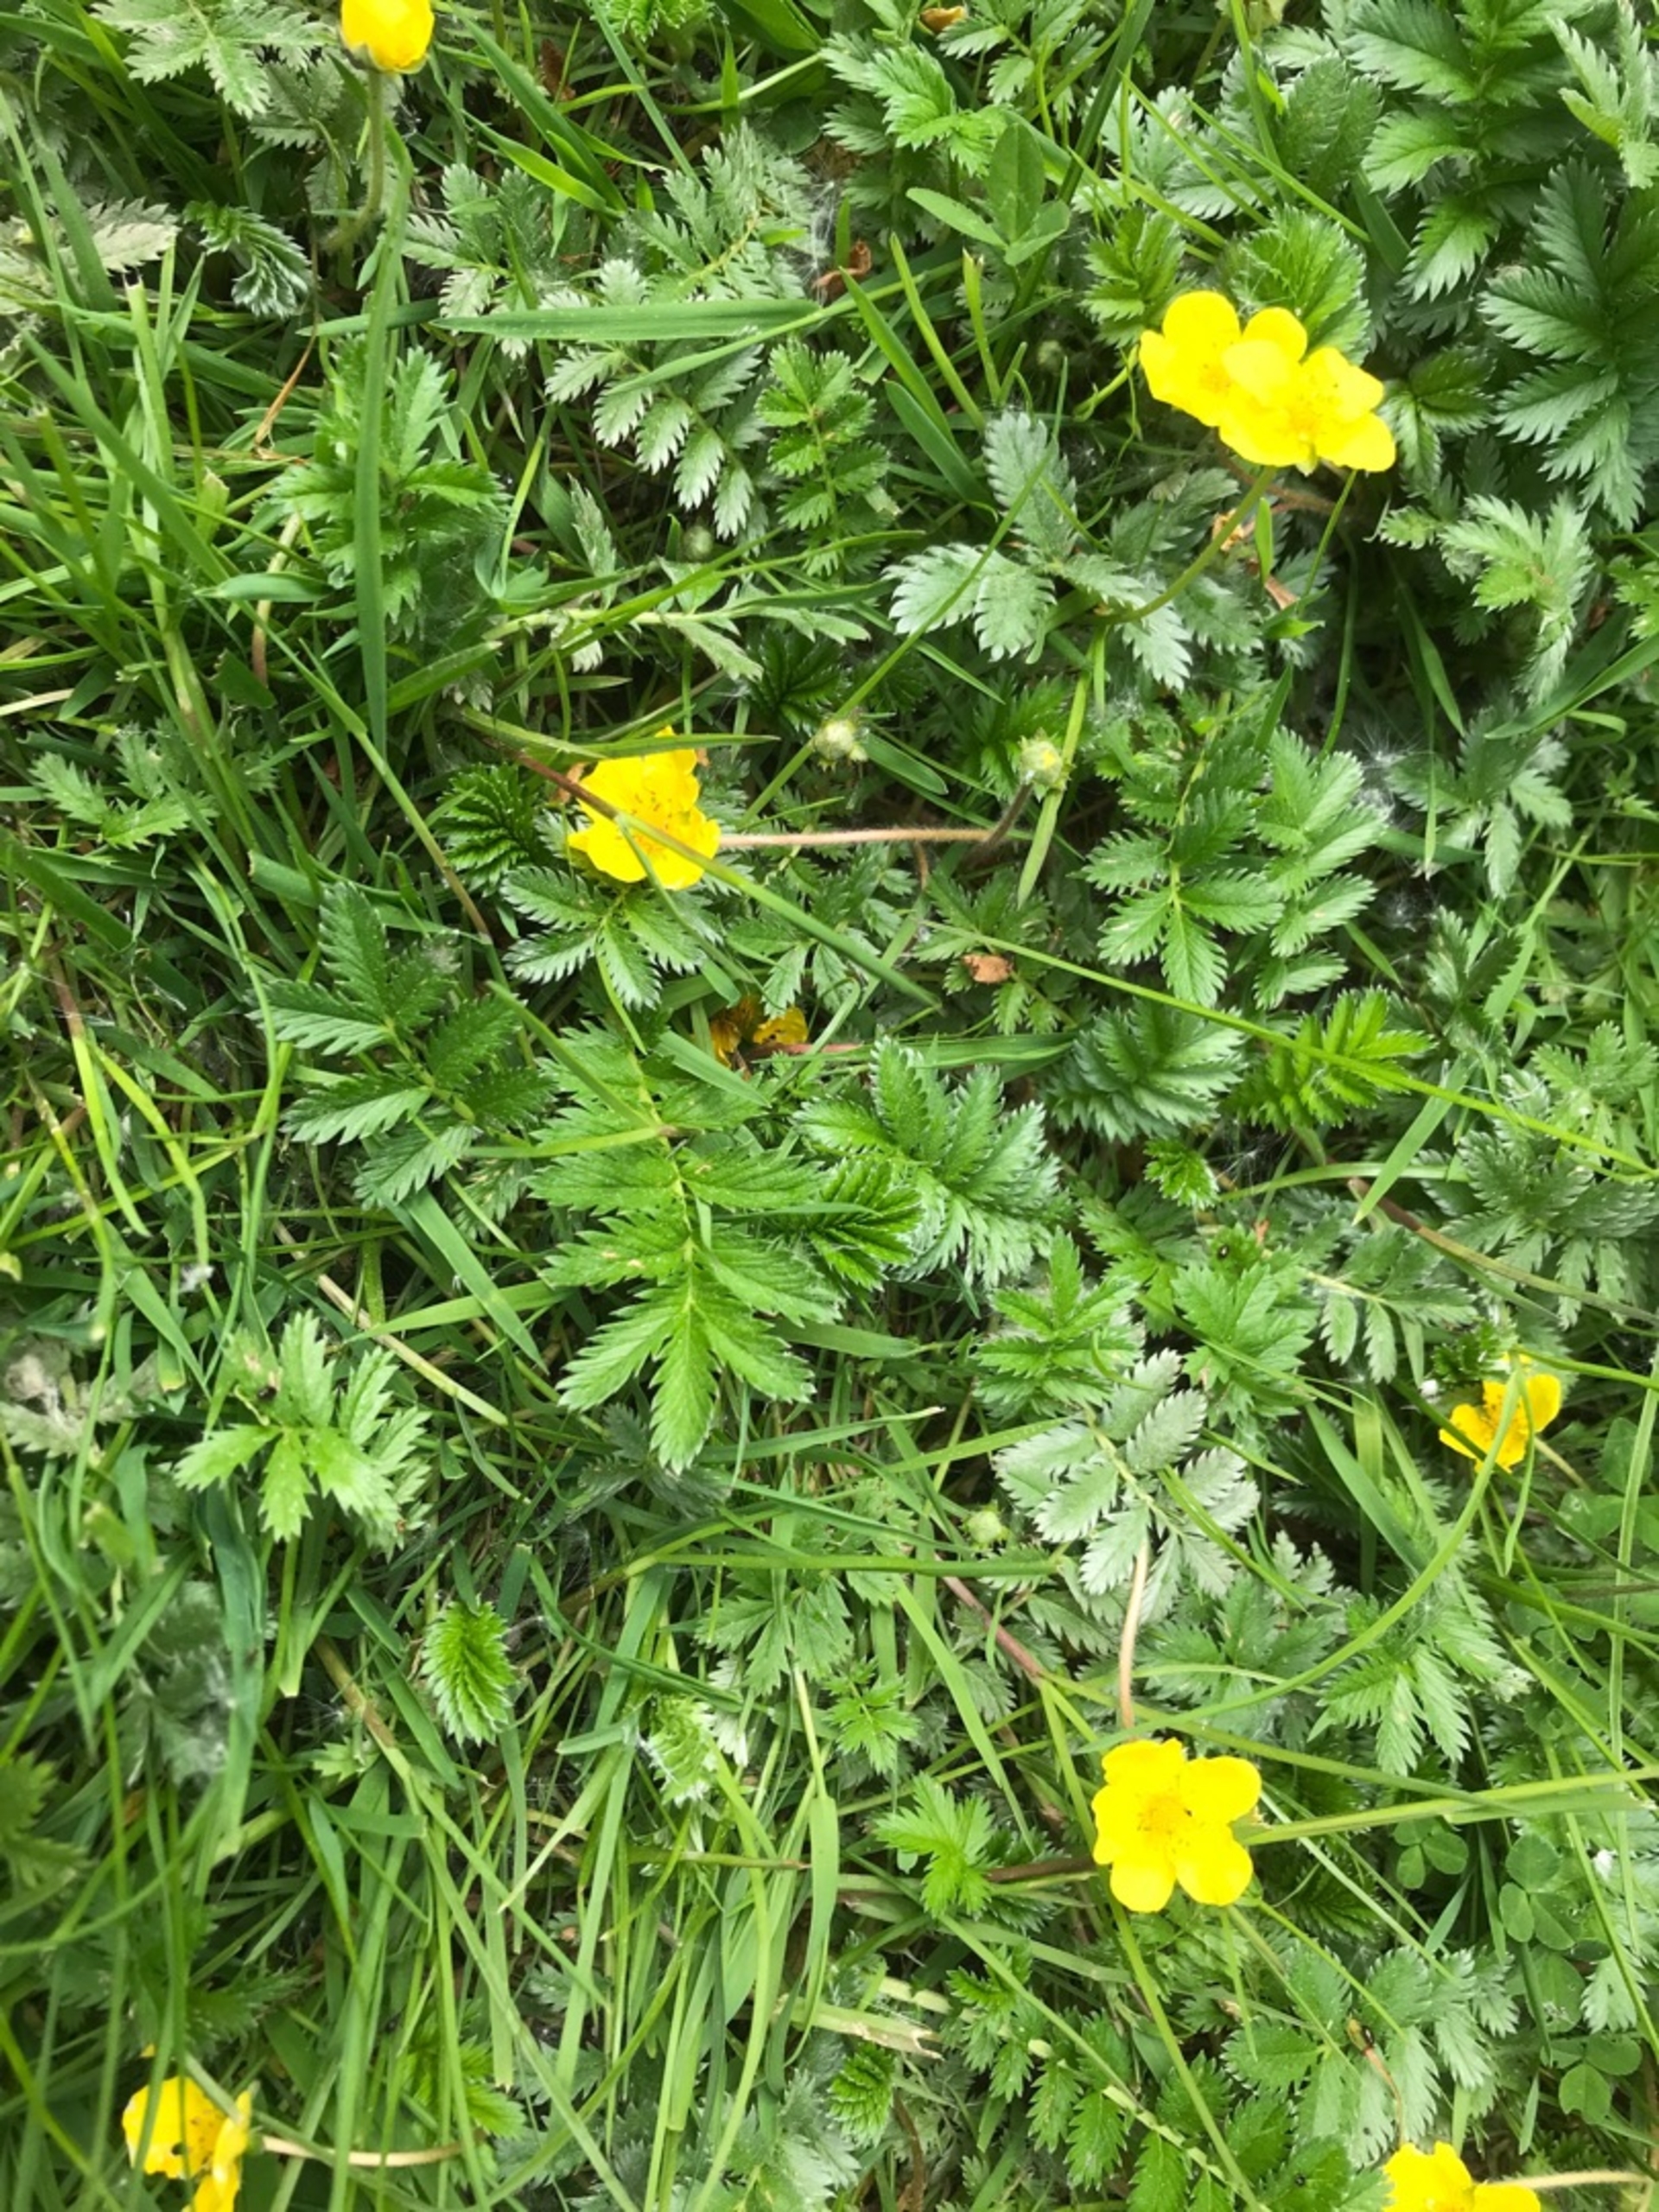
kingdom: Plantae
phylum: Tracheophyta
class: Magnoliopsida
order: Rosales
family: Rosaceae
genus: Argentina
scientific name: Argentina anserina
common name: Gåsepotentil
